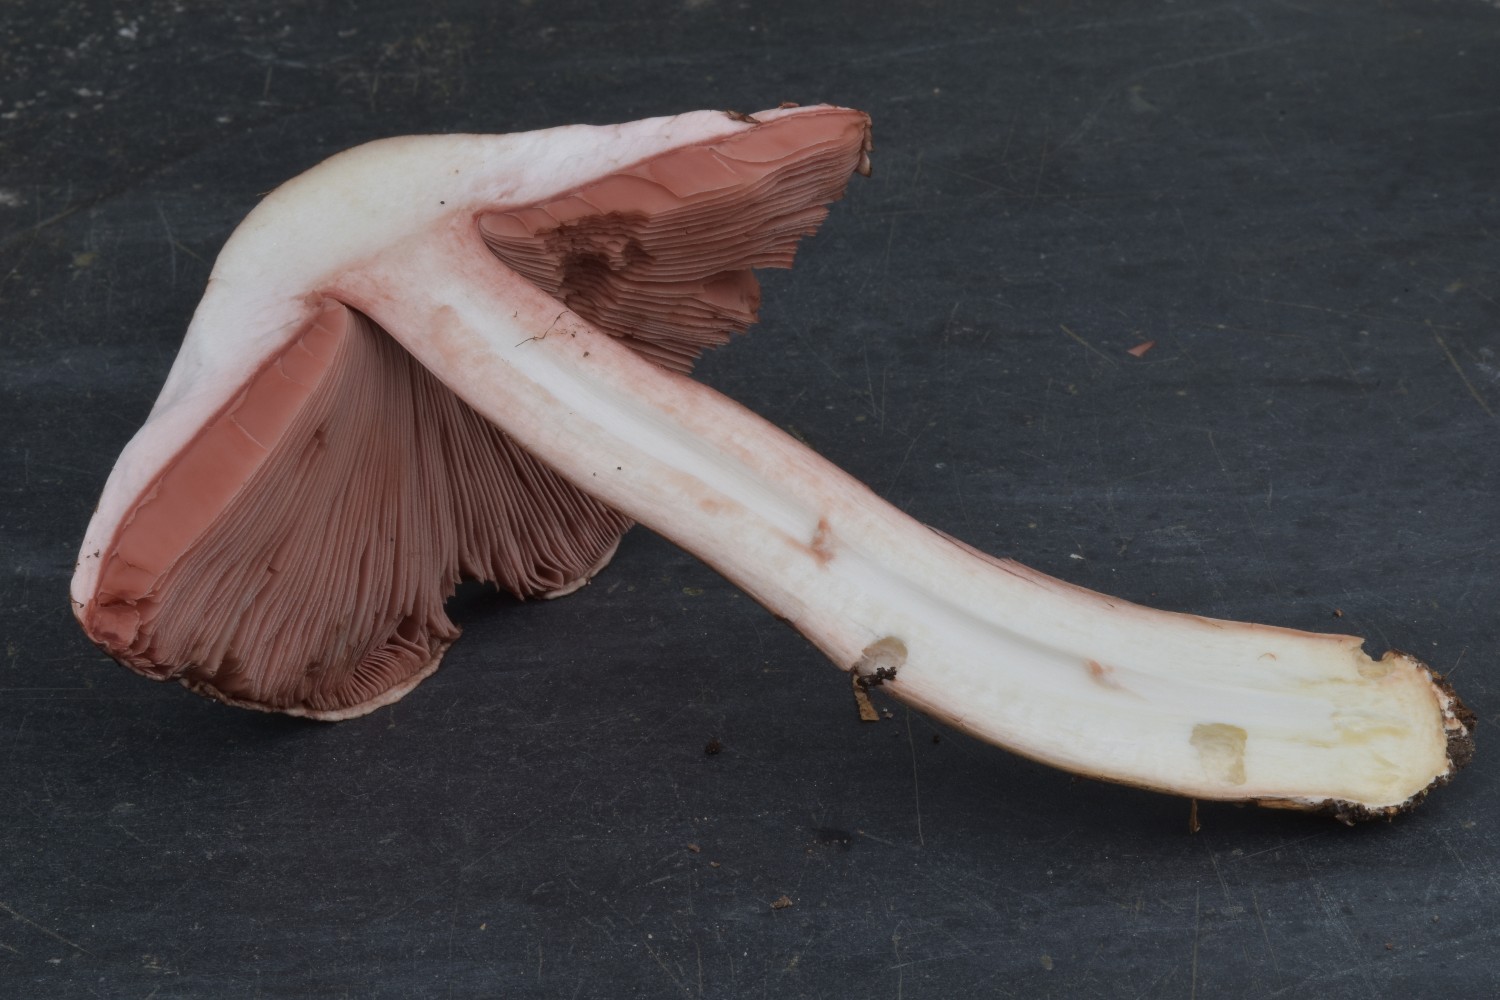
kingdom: Fungi
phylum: Basidiomycota
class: Agaricomycetes
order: Agaricales
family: Agaricaceae
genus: Agaricus
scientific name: Agaricus impudicus
